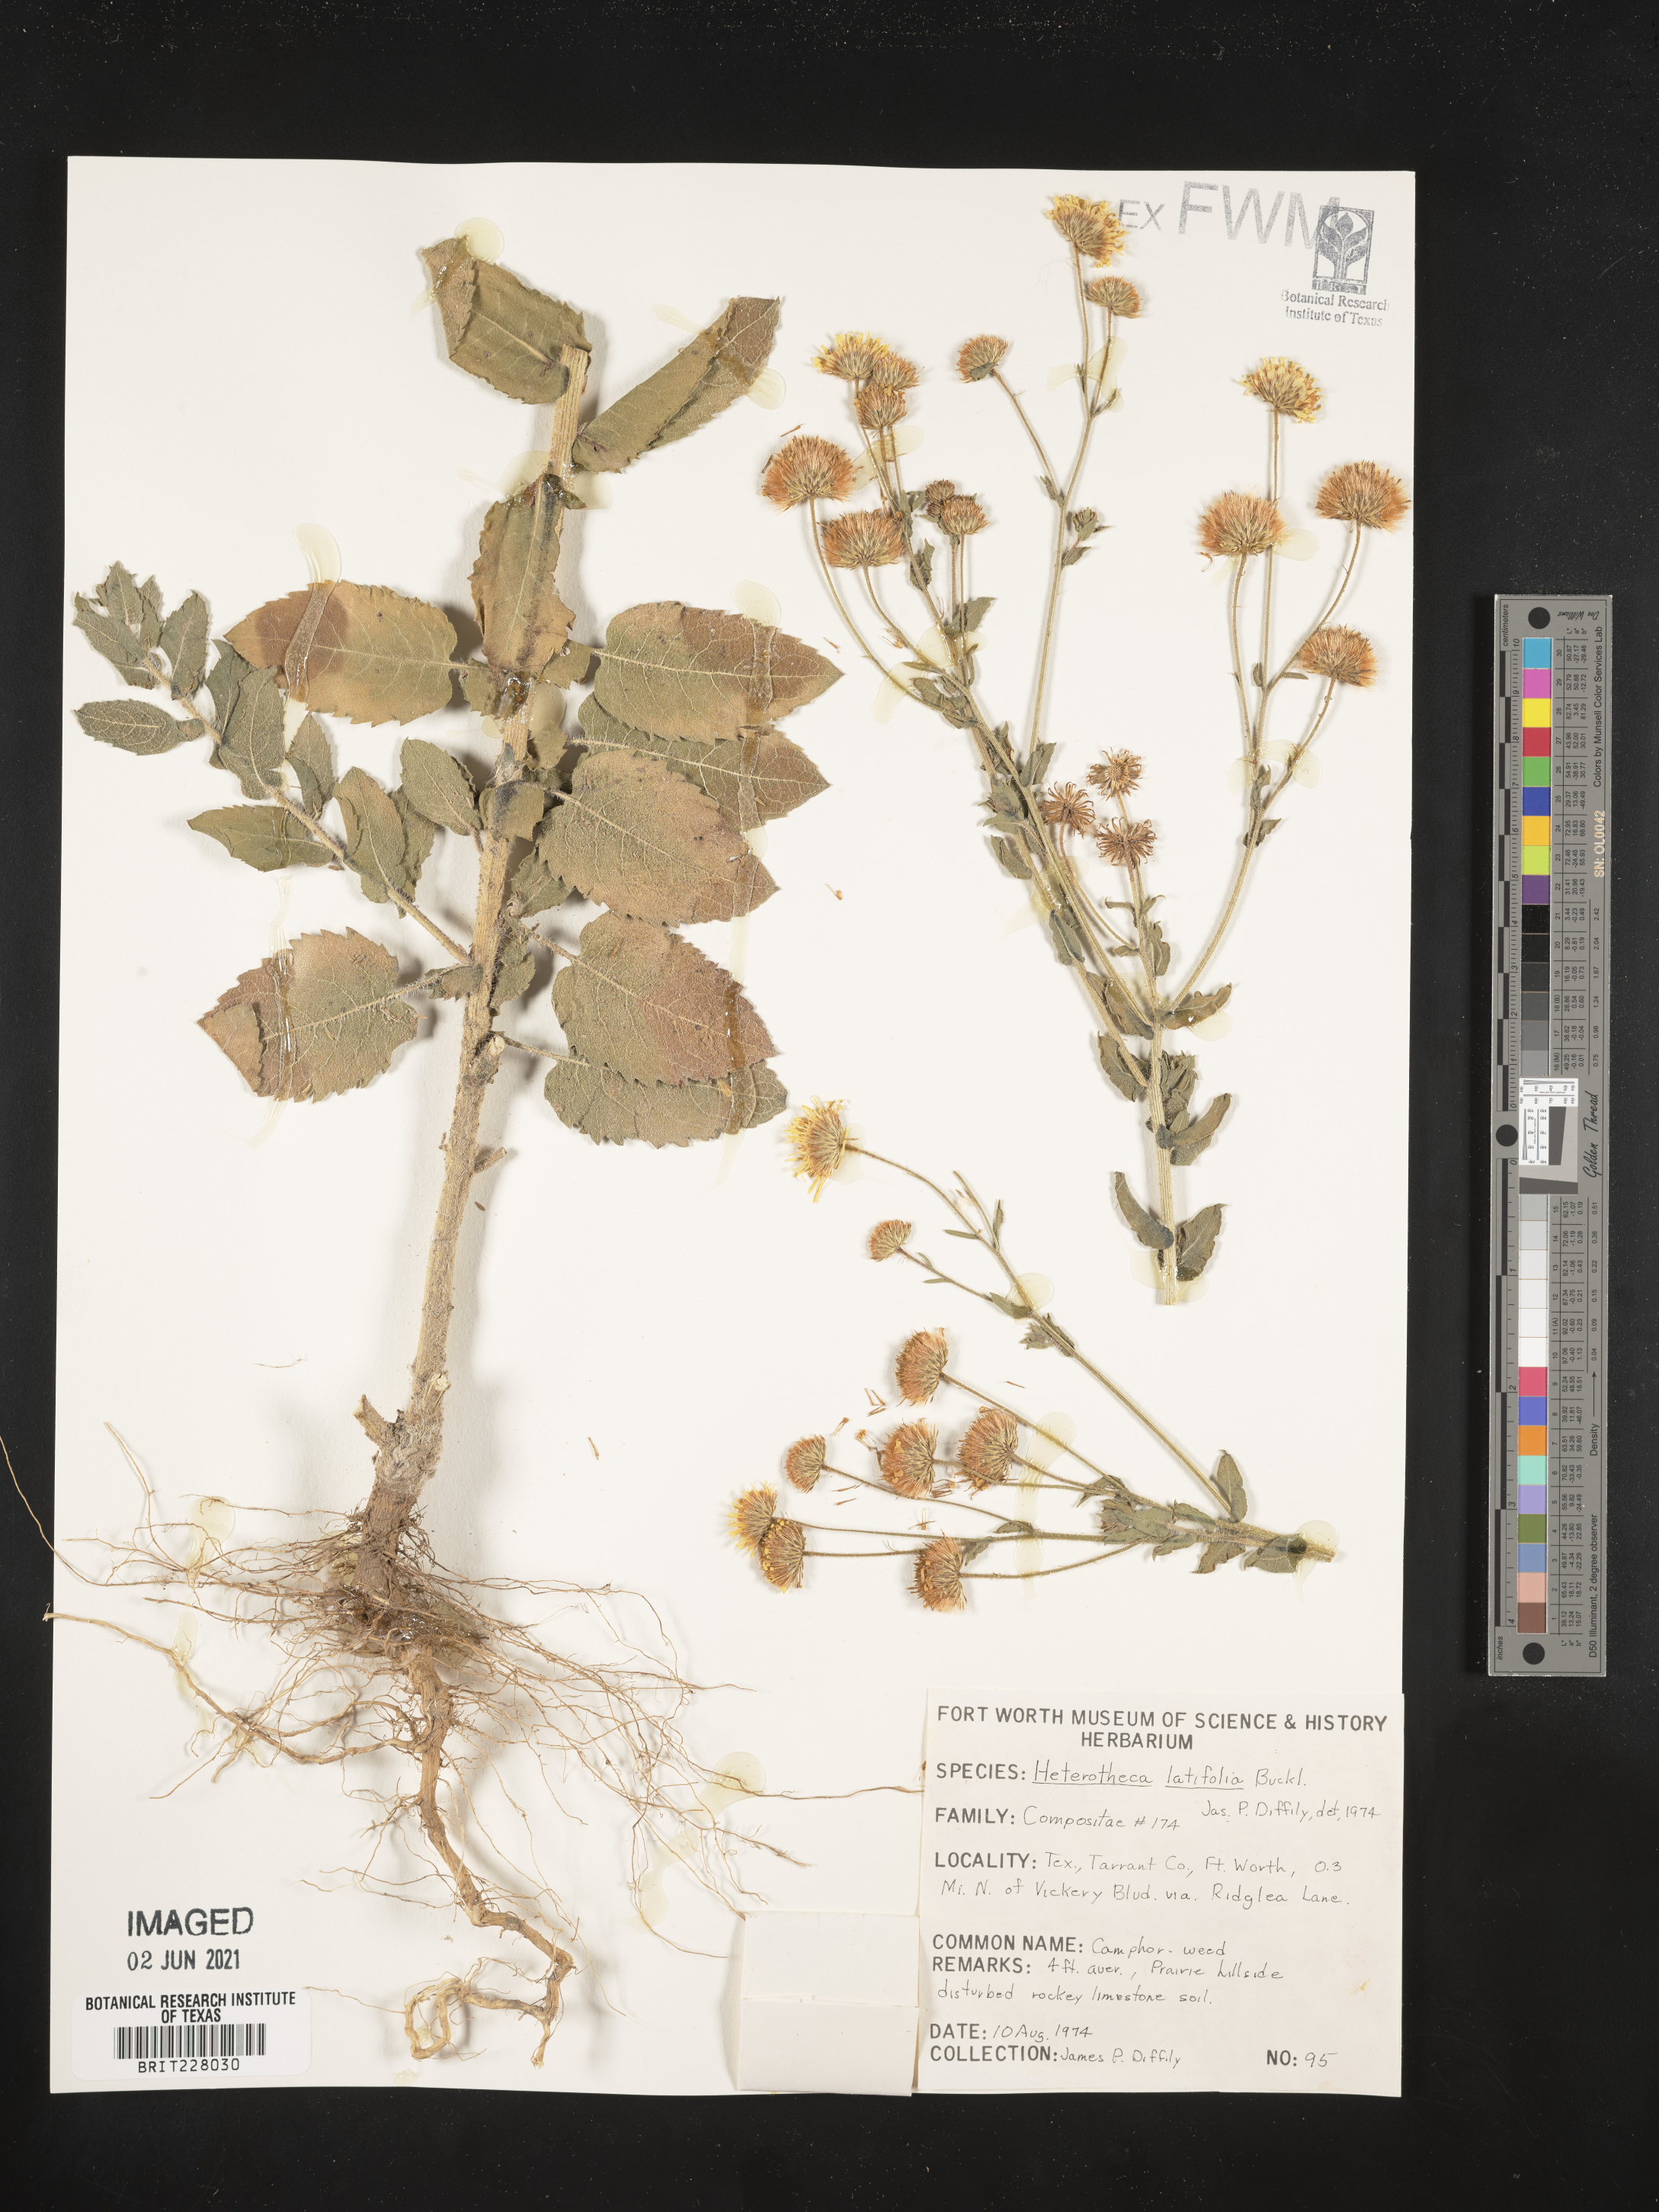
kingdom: Plantae
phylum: Tracheophyta
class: Magnoliopsida
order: Asterales
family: Asteraceae
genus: Heterotheca
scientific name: Heterotheca subaxillaris
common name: Camphorweed
